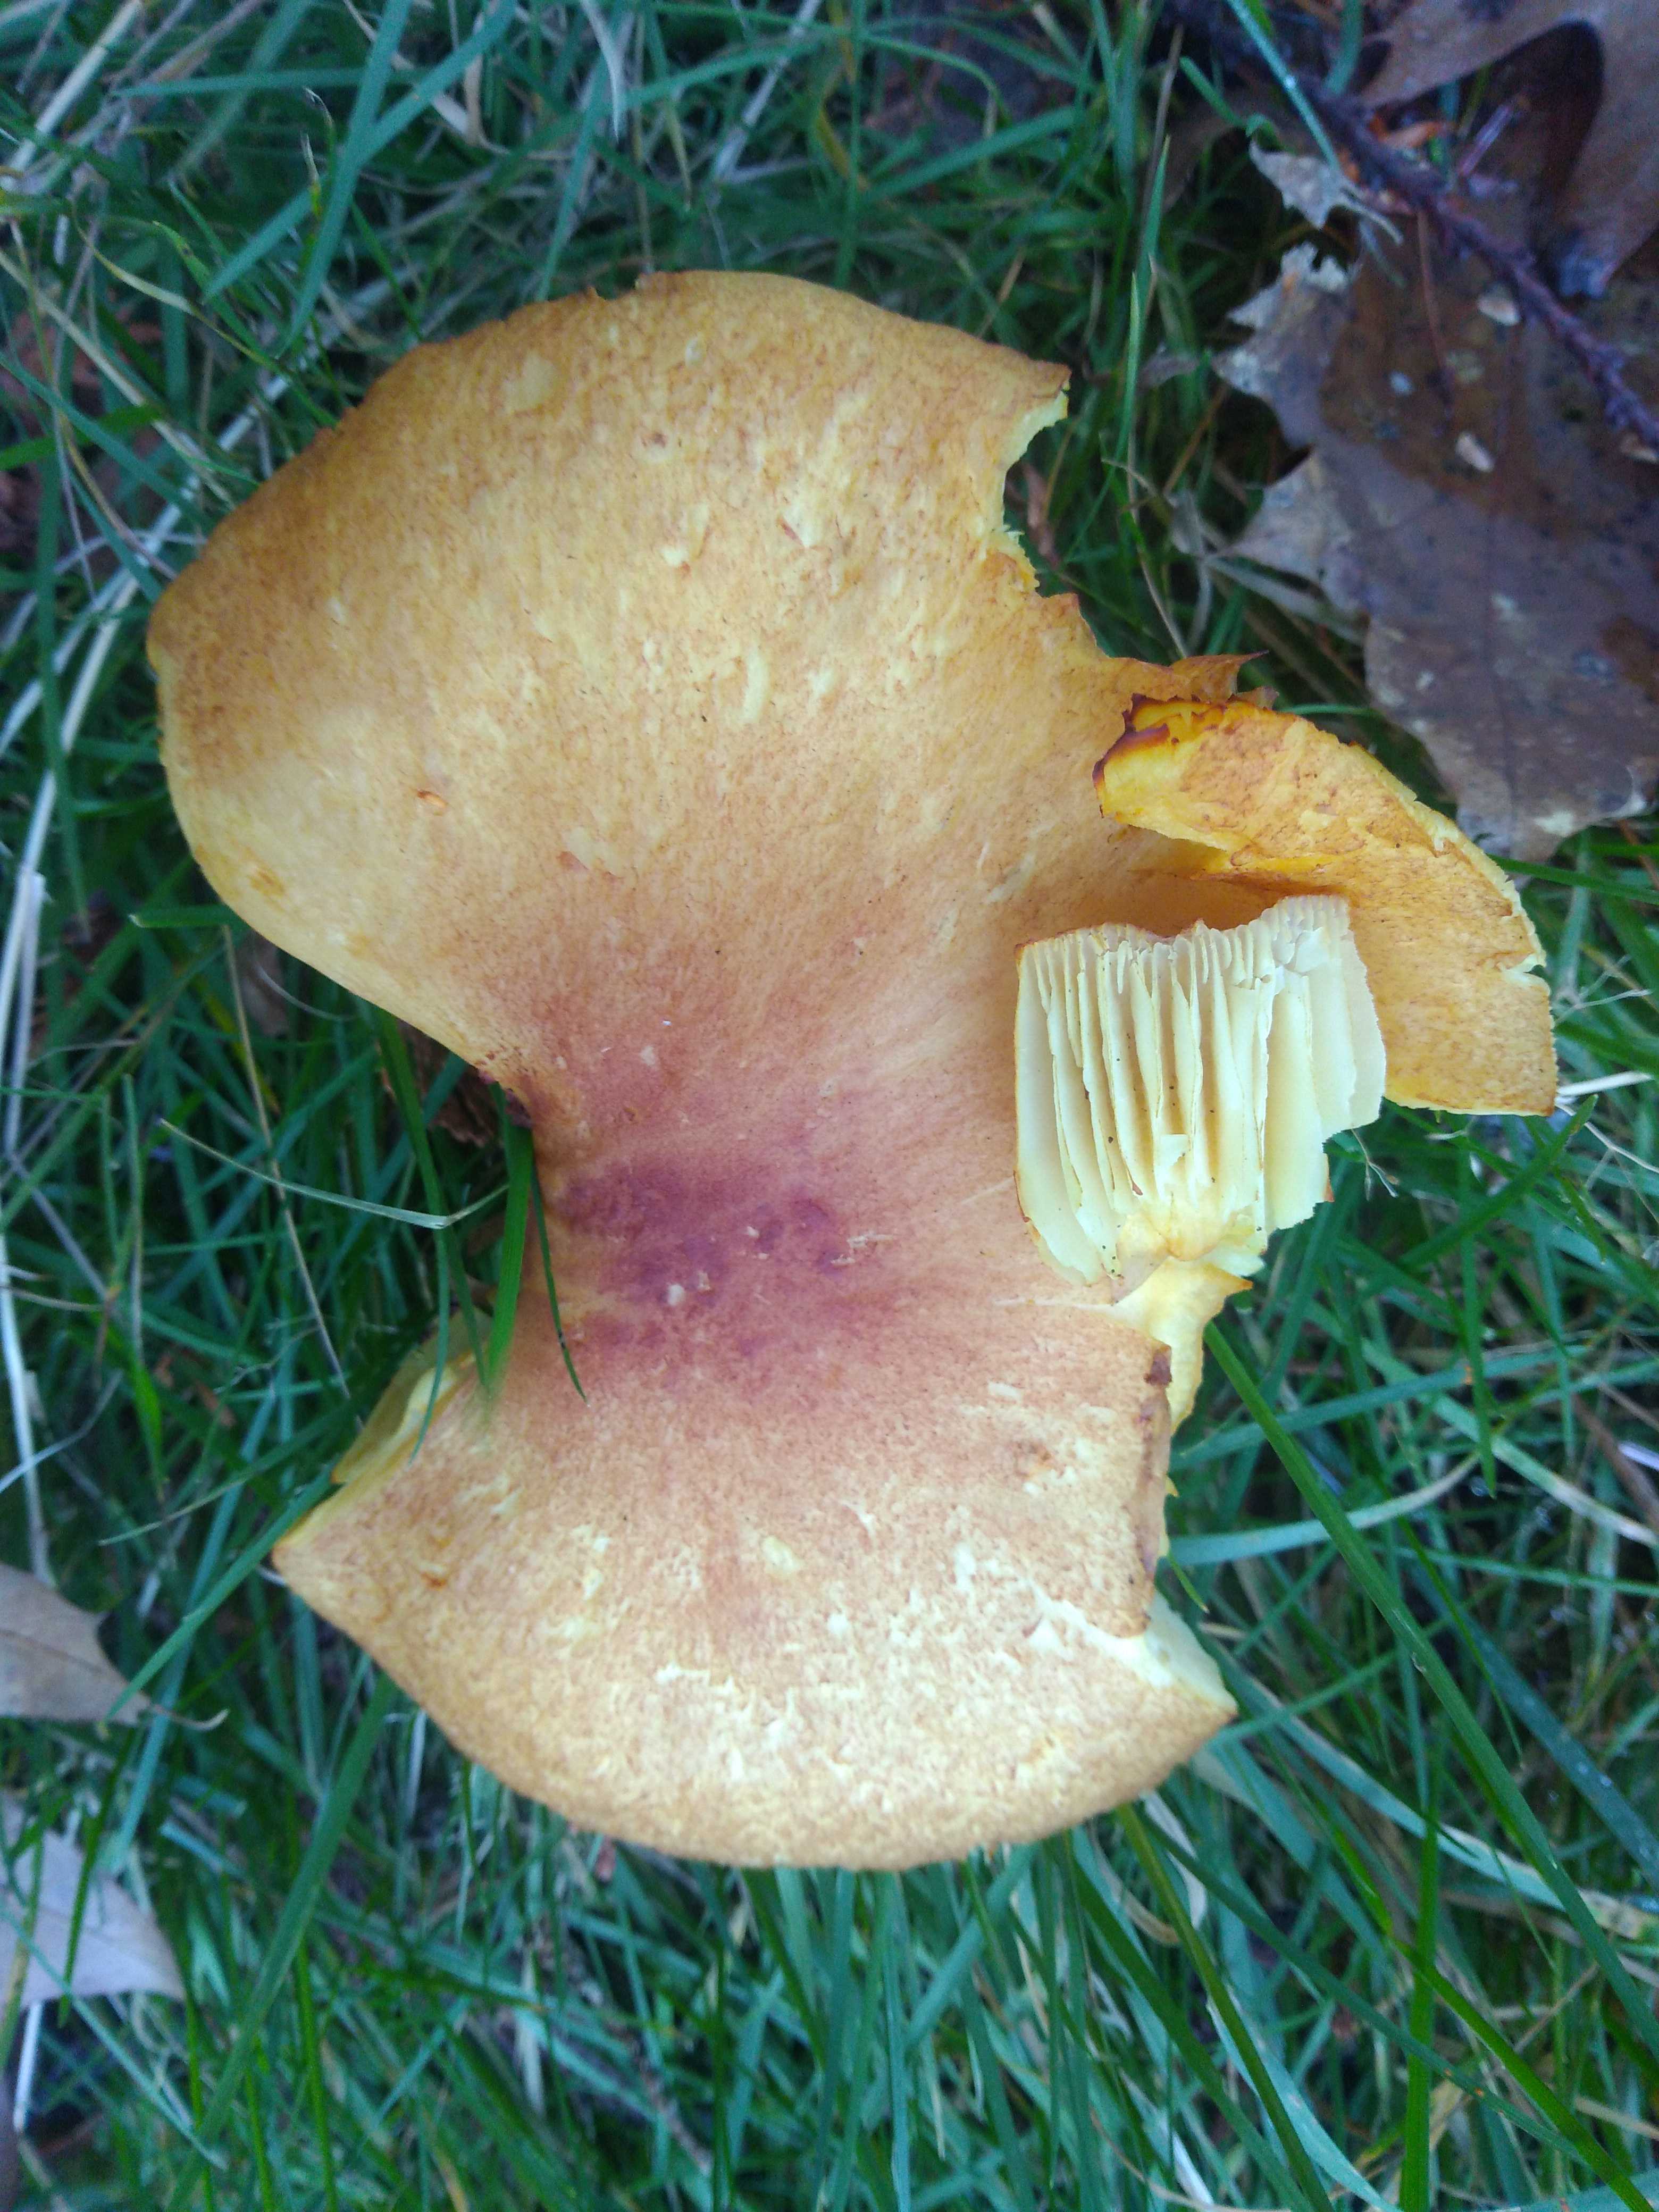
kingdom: Fungi
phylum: Basidiomycota
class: Agaricomycetes
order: Agaricales
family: Tricholomataceae
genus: Tricholomopsis
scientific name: Tricholomopsis rutilans
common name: purpur-væbnerhat
